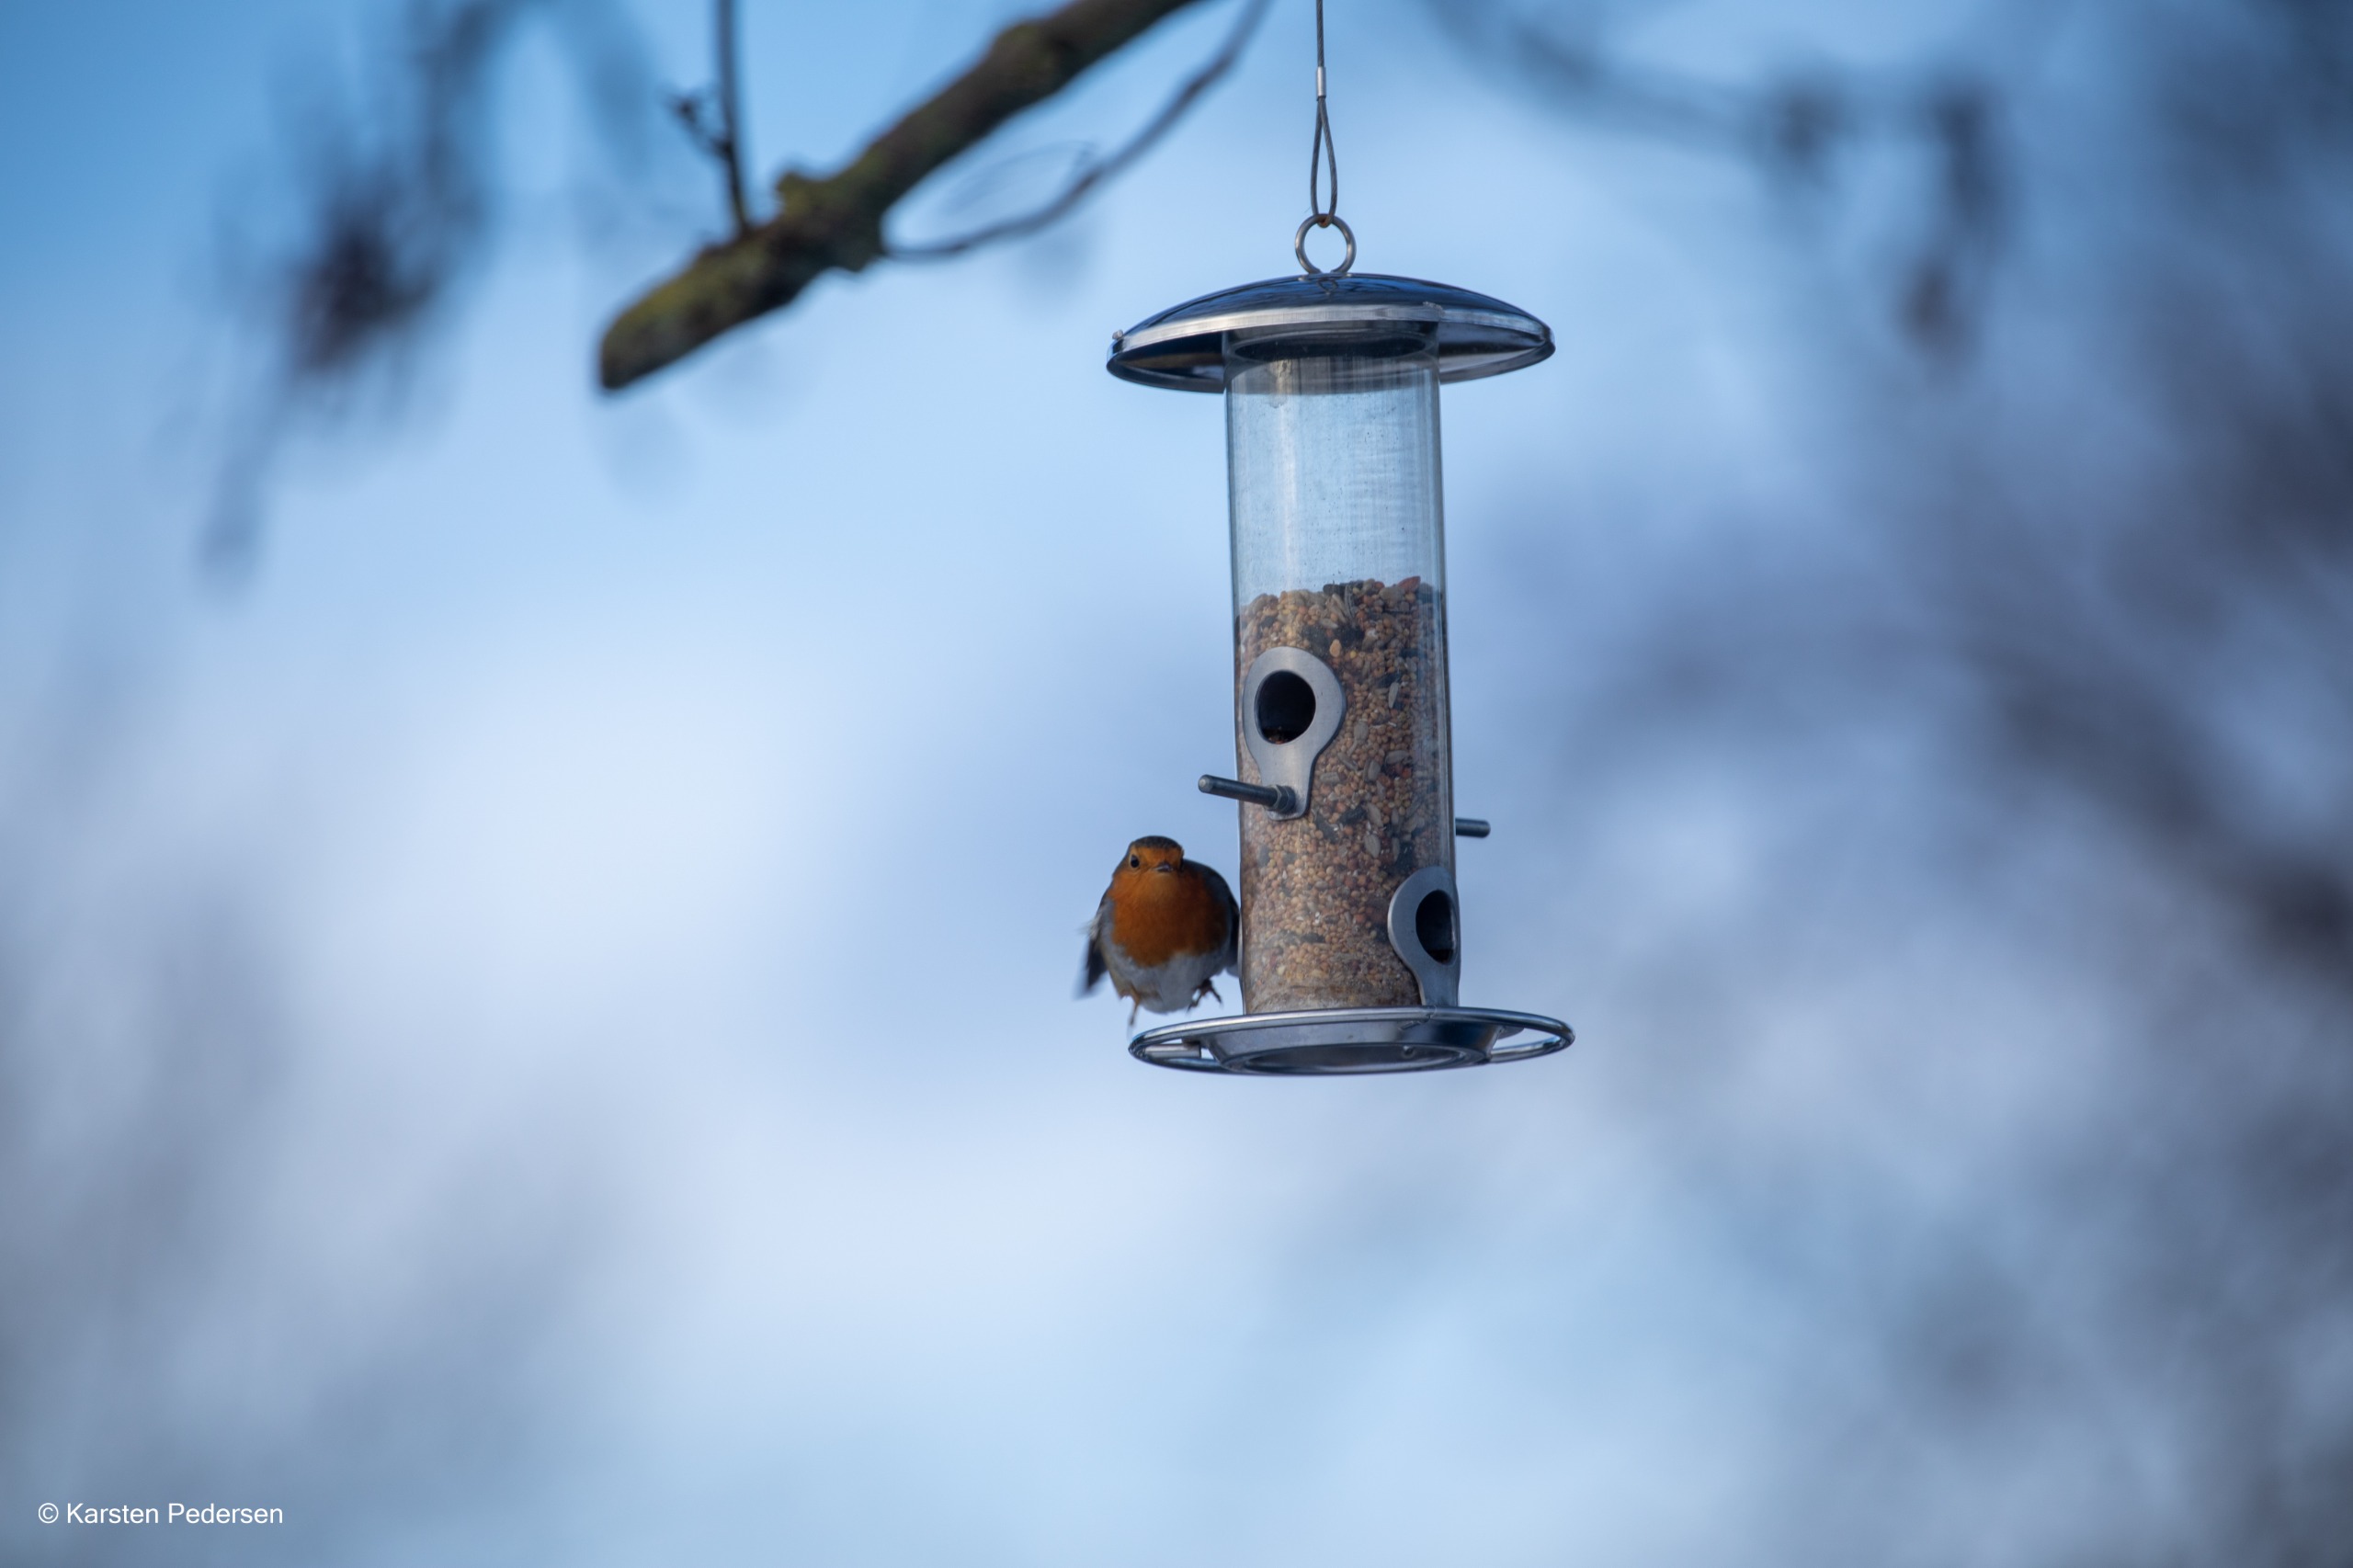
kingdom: Animalia
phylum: Chordata
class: Aves
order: Passeriformes
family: Muscicapidae
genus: Erithacus
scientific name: Erithacus rubecula
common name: Rødhals/rødkælk
